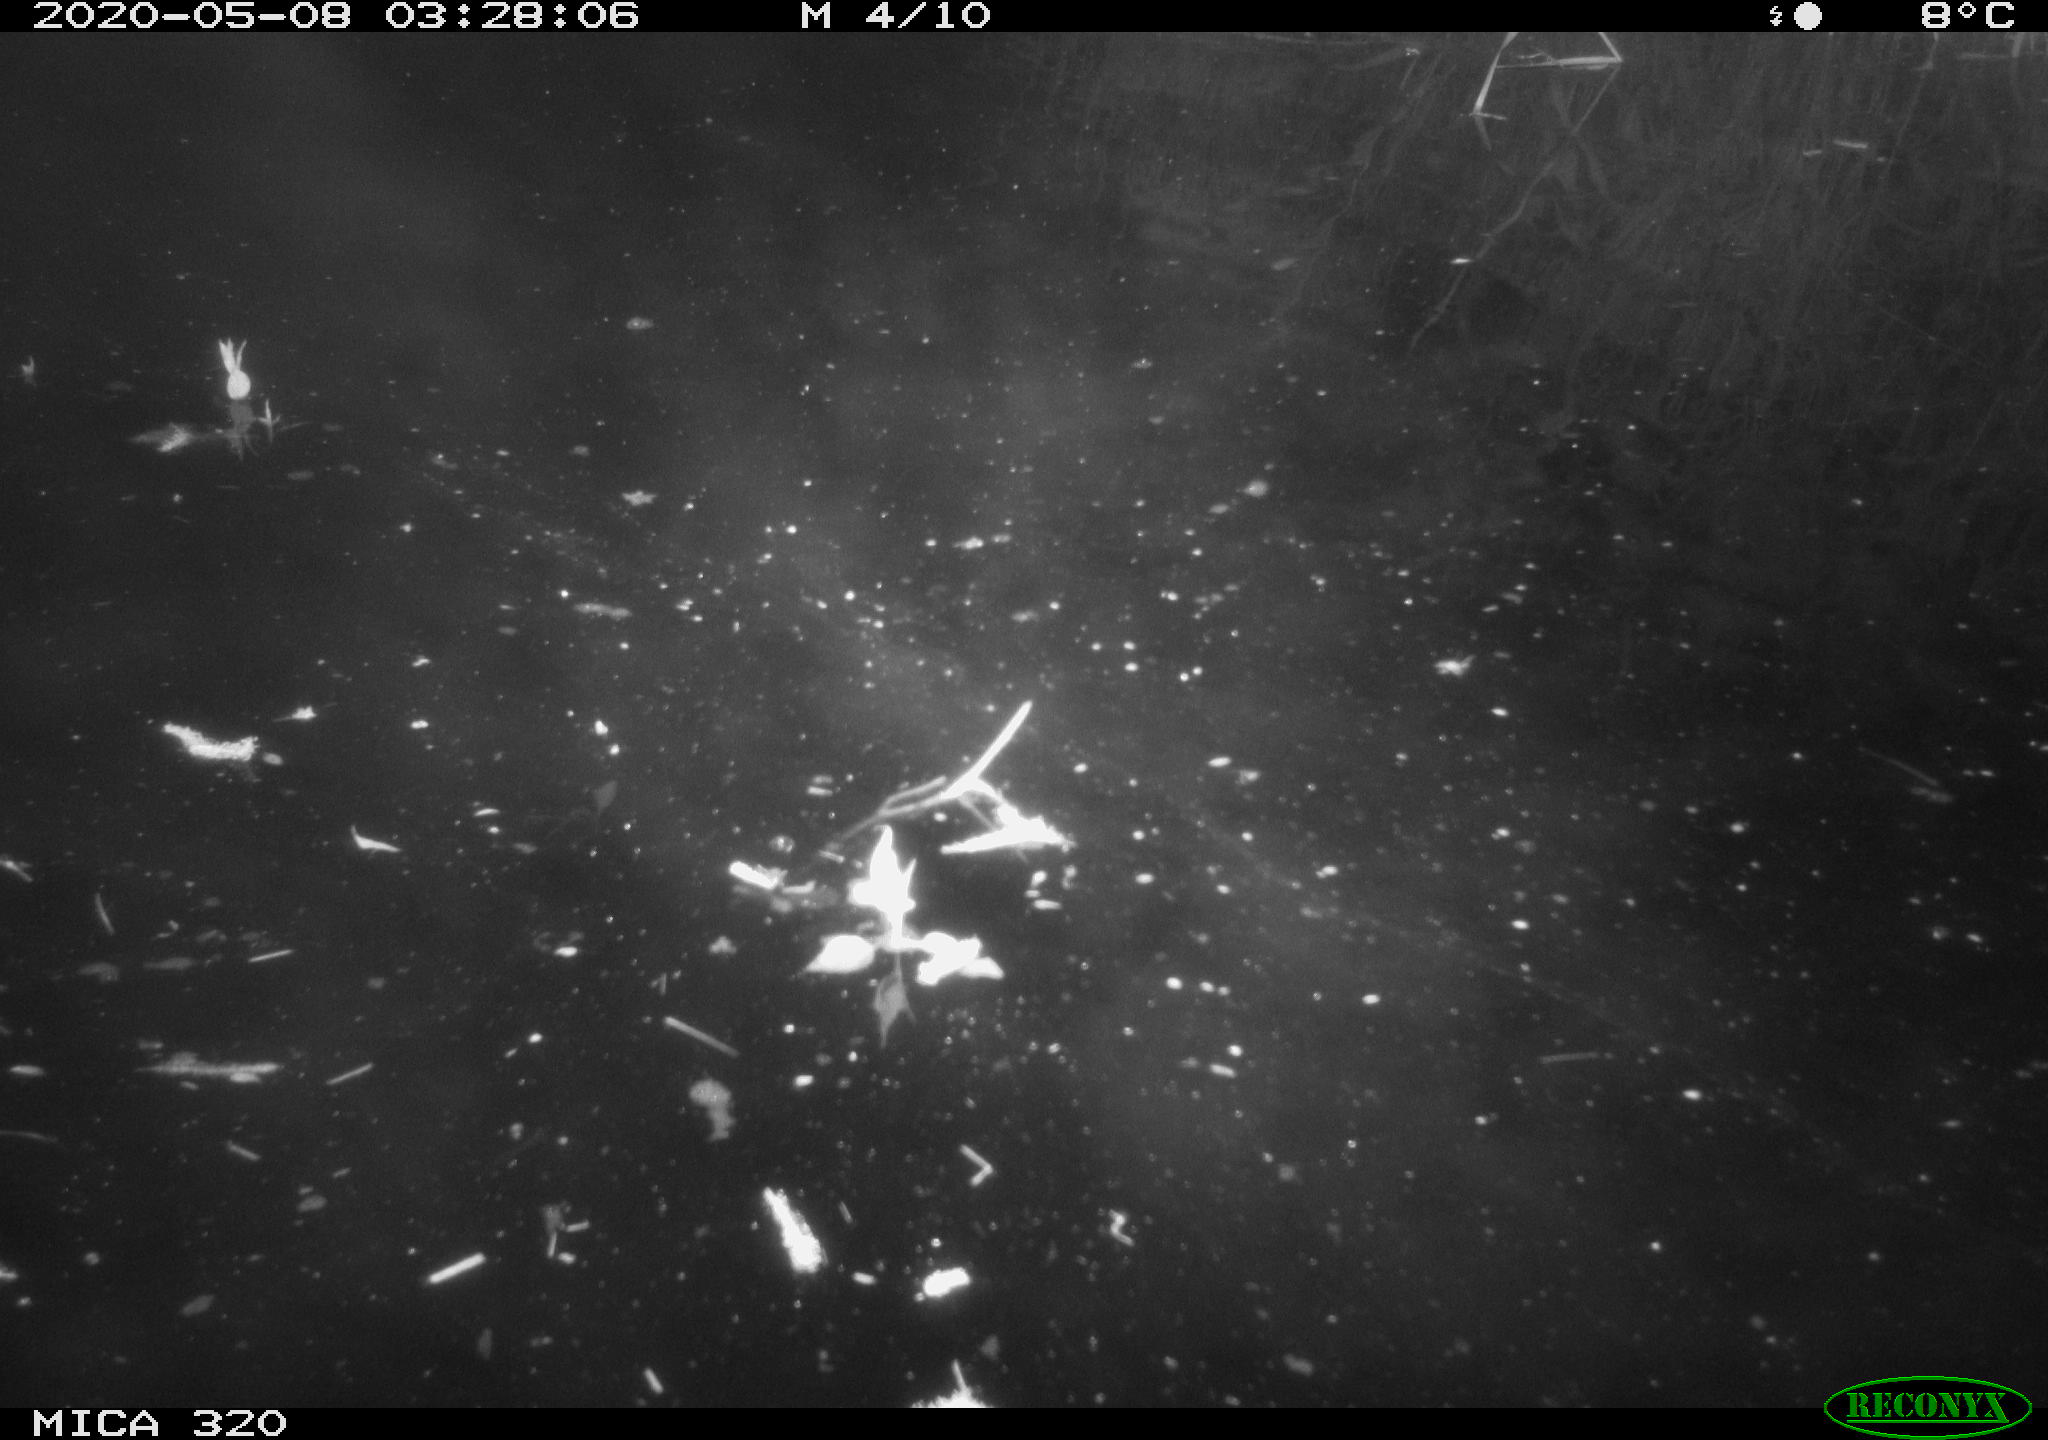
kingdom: Animalia
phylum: Chordata
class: Aves
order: Anseriformes
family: Anatidae
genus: Anas
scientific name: Anas platyrhynchos
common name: Mallard
